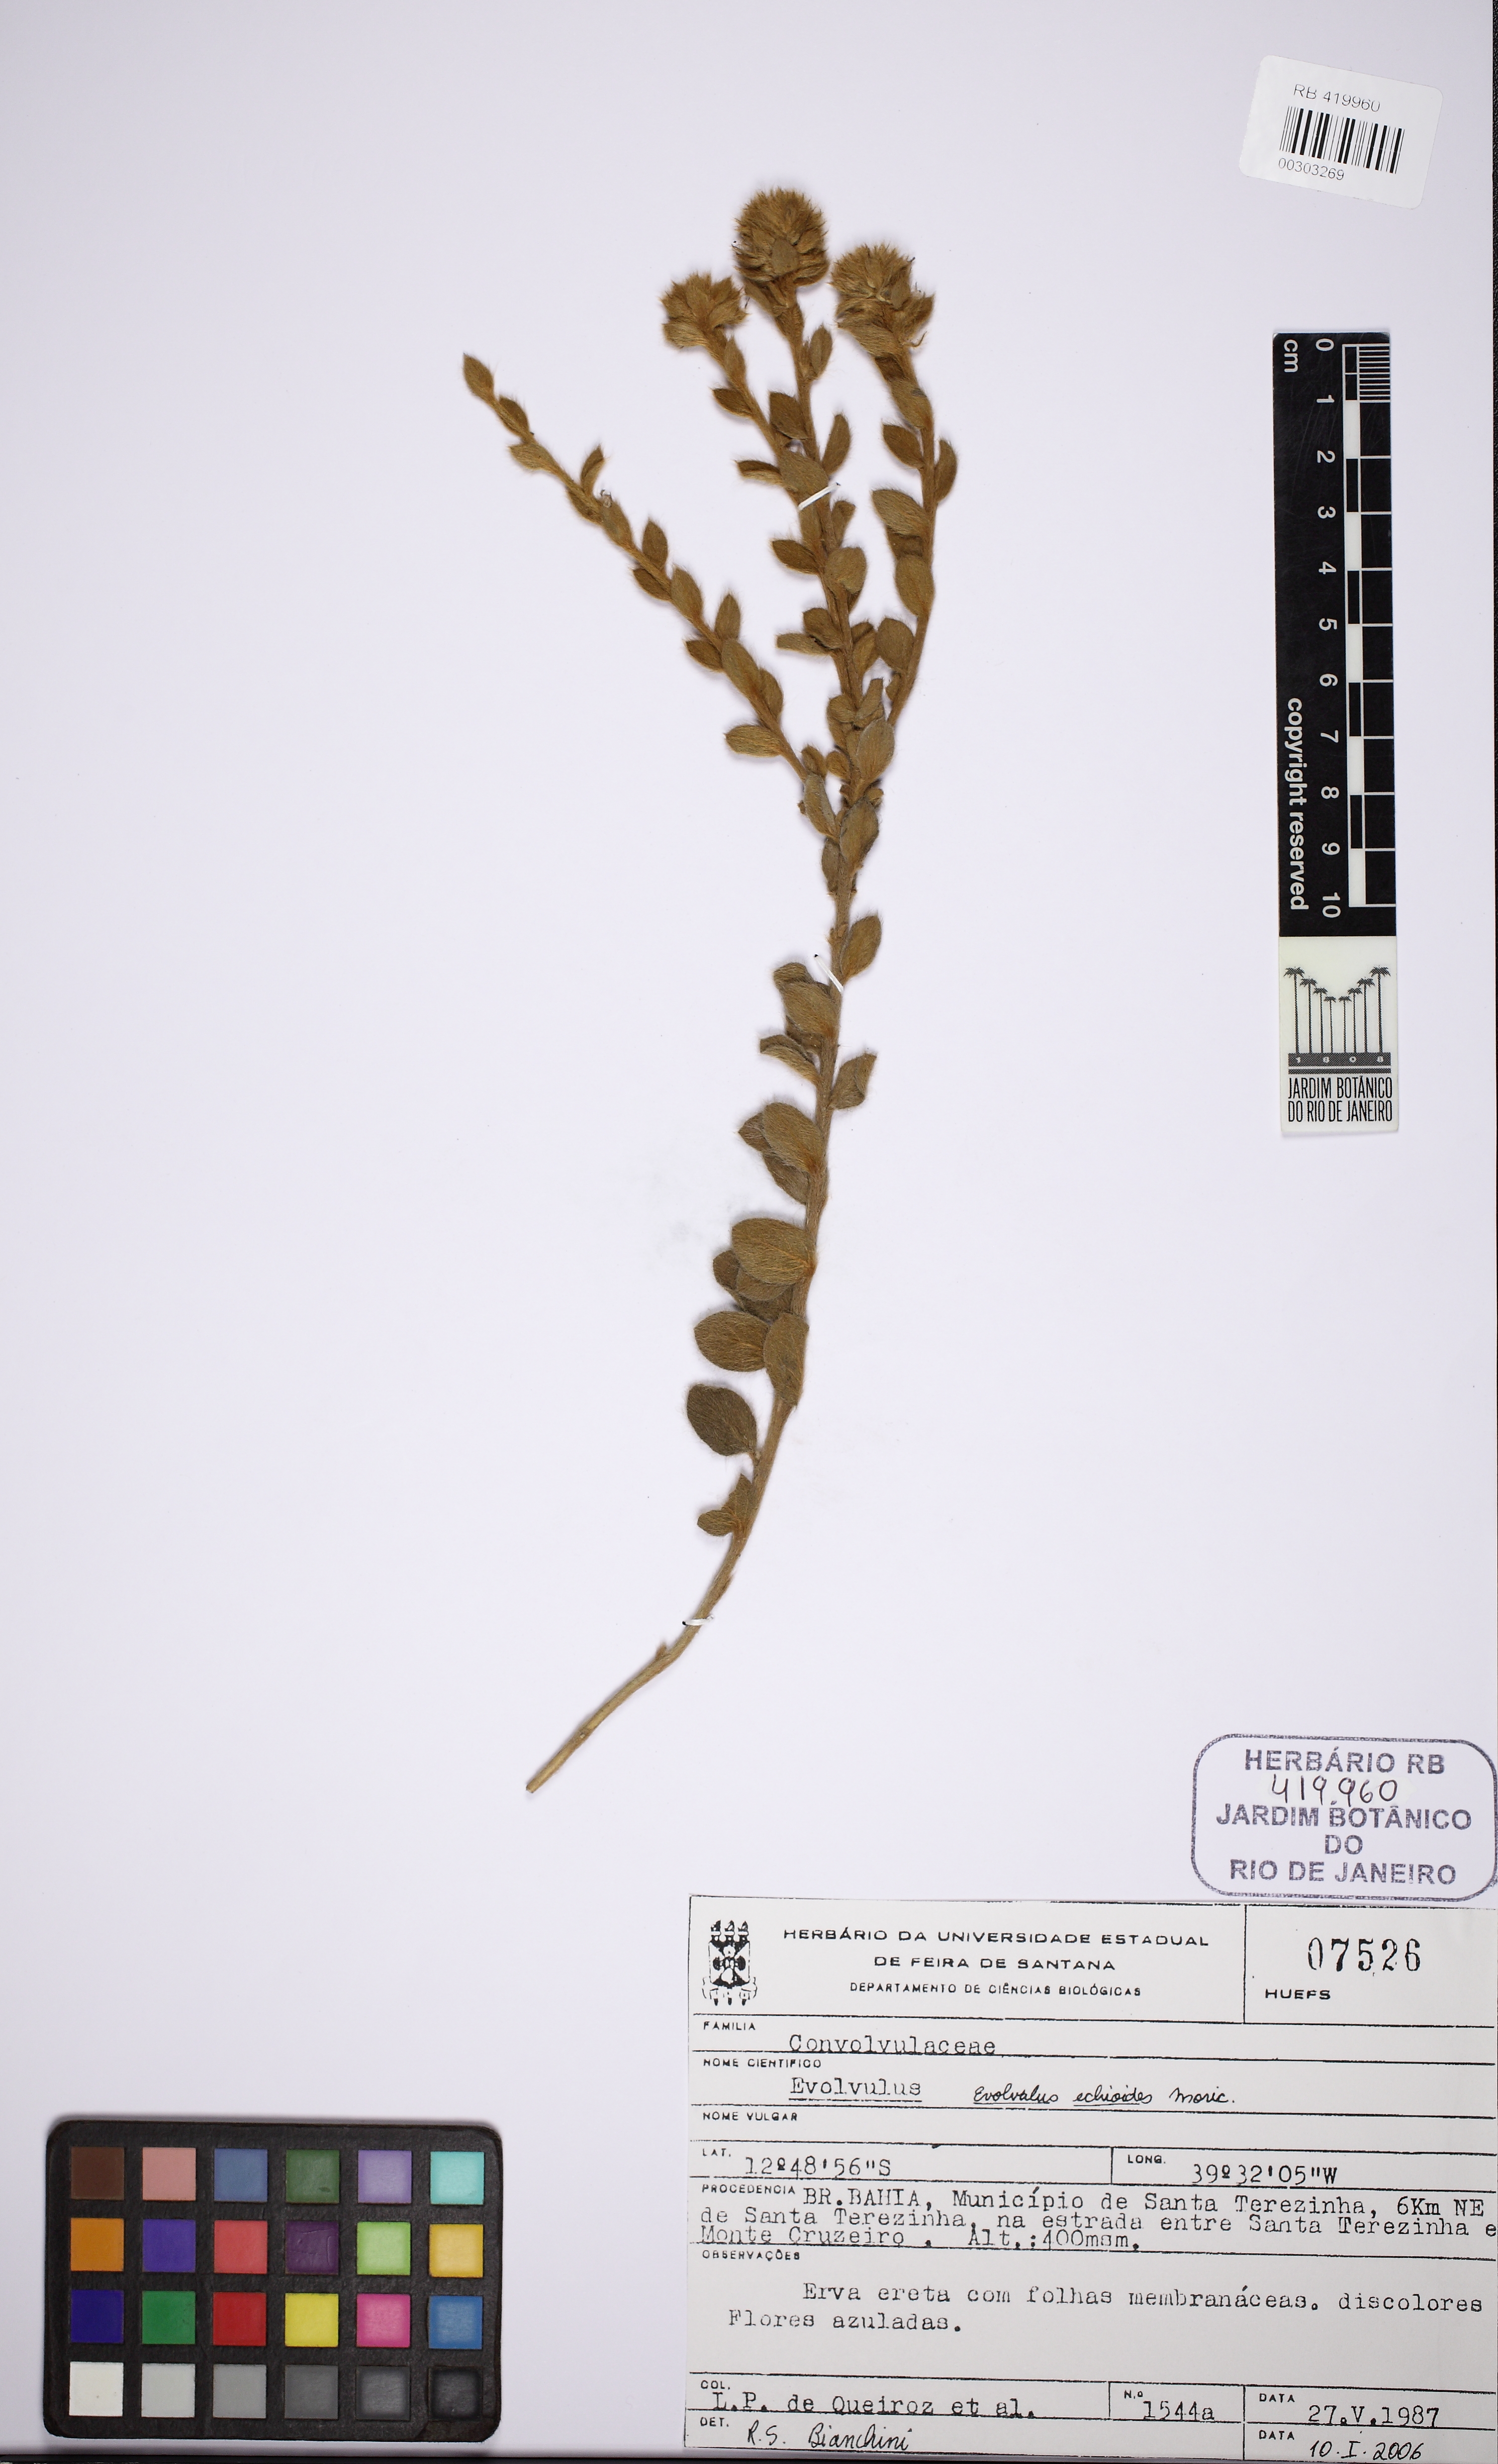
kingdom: Plantae
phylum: Tracheophyta
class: Magnoliopsida
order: Solanales
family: Convolvulaceae
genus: Evolvulus
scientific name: Evolvulus echioides
